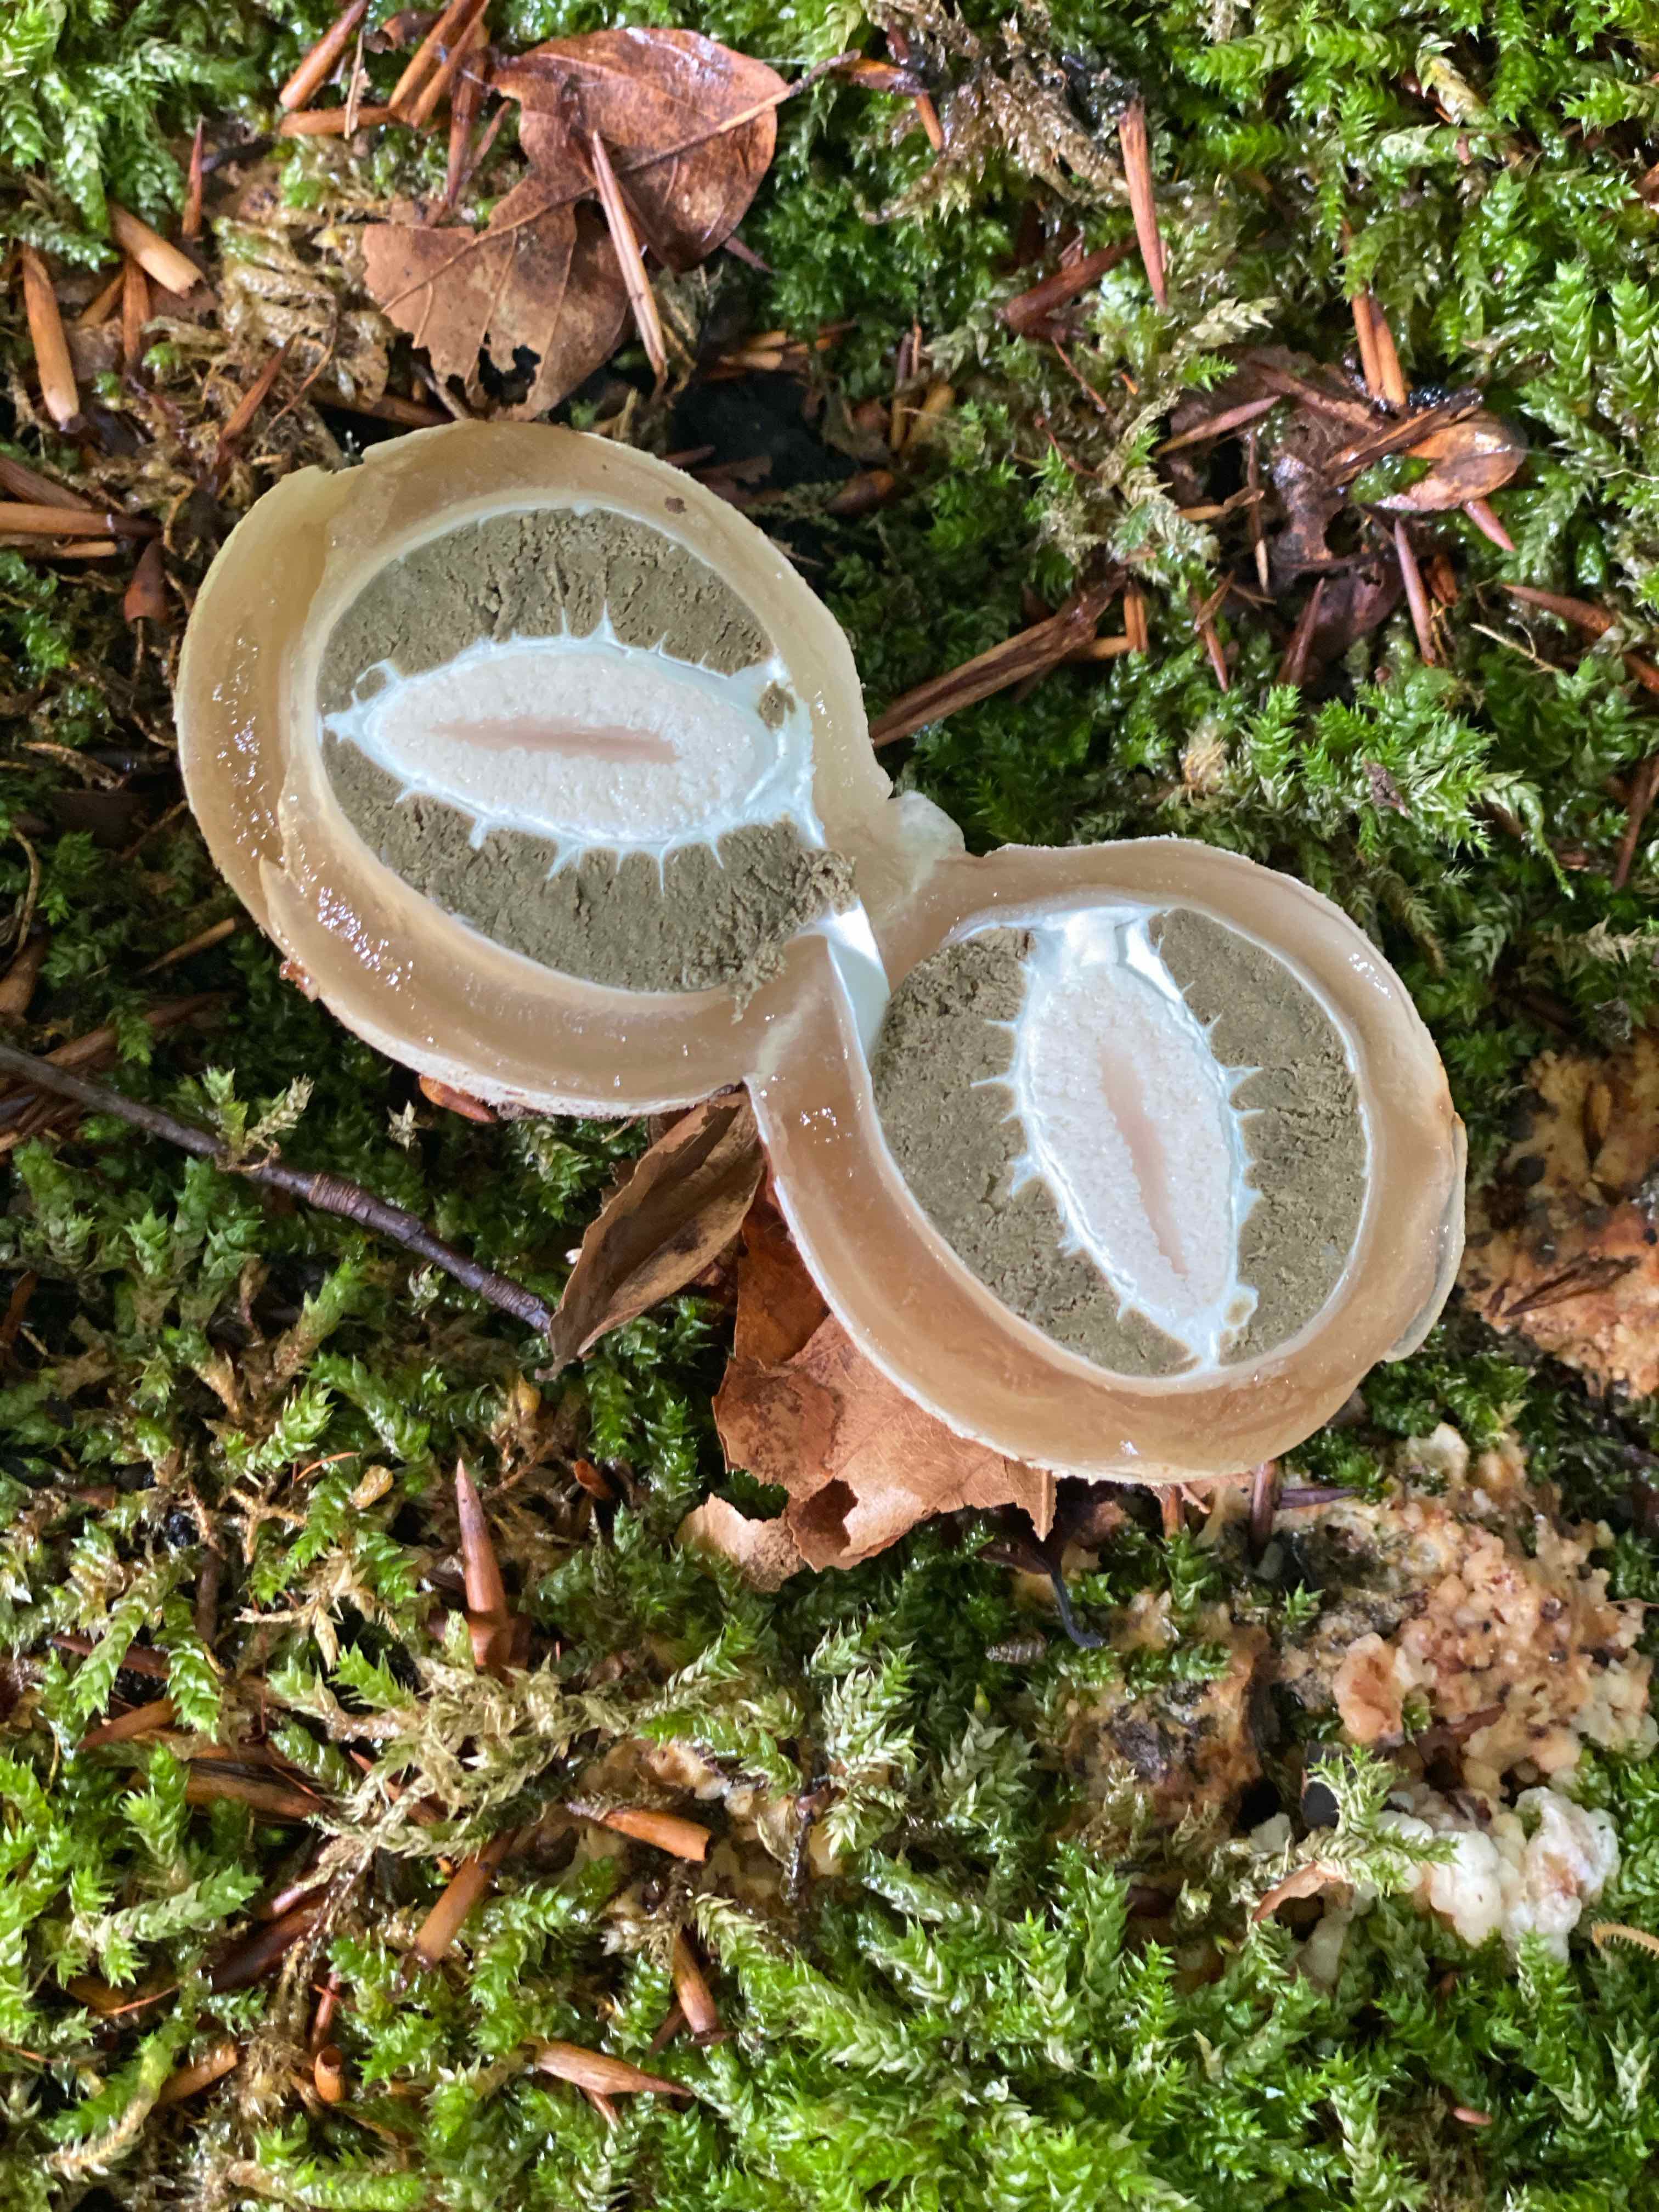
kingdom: Fungi
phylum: Basidiomycota
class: Agaricomycetes
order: Phallales
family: Phallaceae
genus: Phallus
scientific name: Phallus impudicus
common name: almindelig stinksvamp
